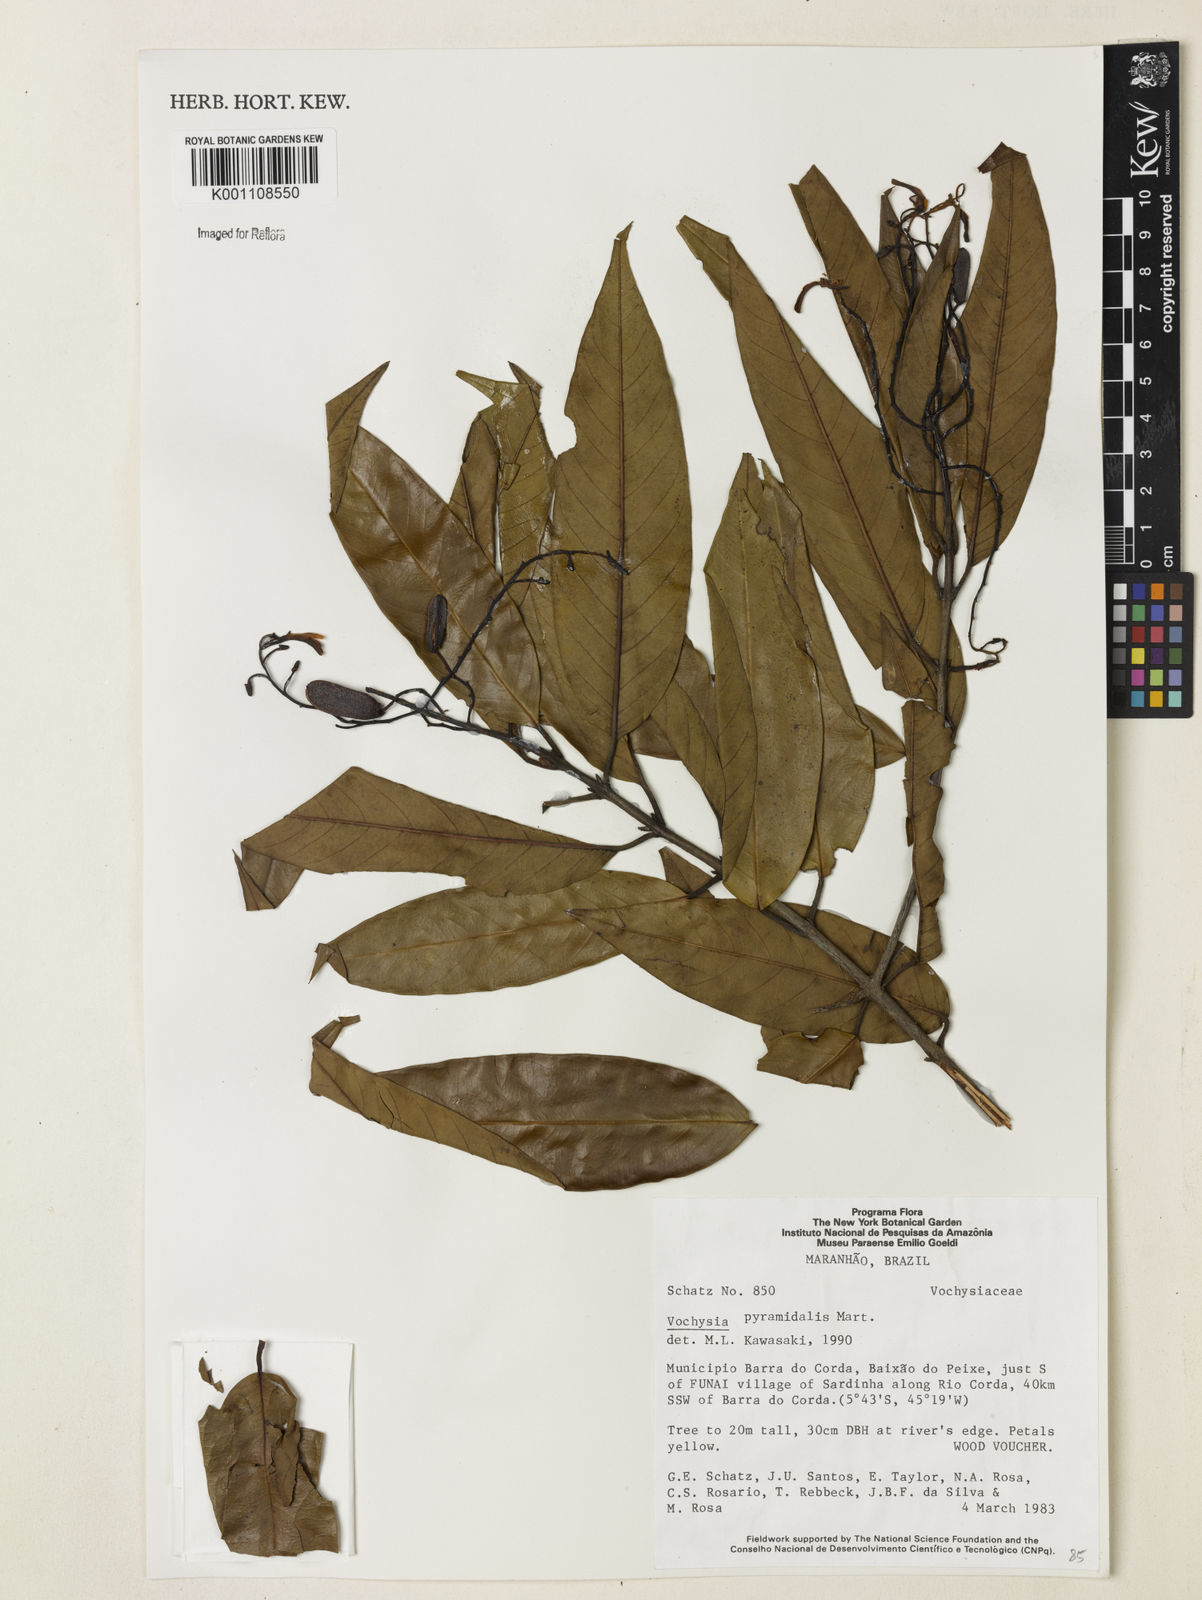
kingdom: Plantae
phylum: Tracheophyta
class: Magnoliopsida
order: Myrtales
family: Vochysiaceae
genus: Vochysia
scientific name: Vochysia pyramidalis
